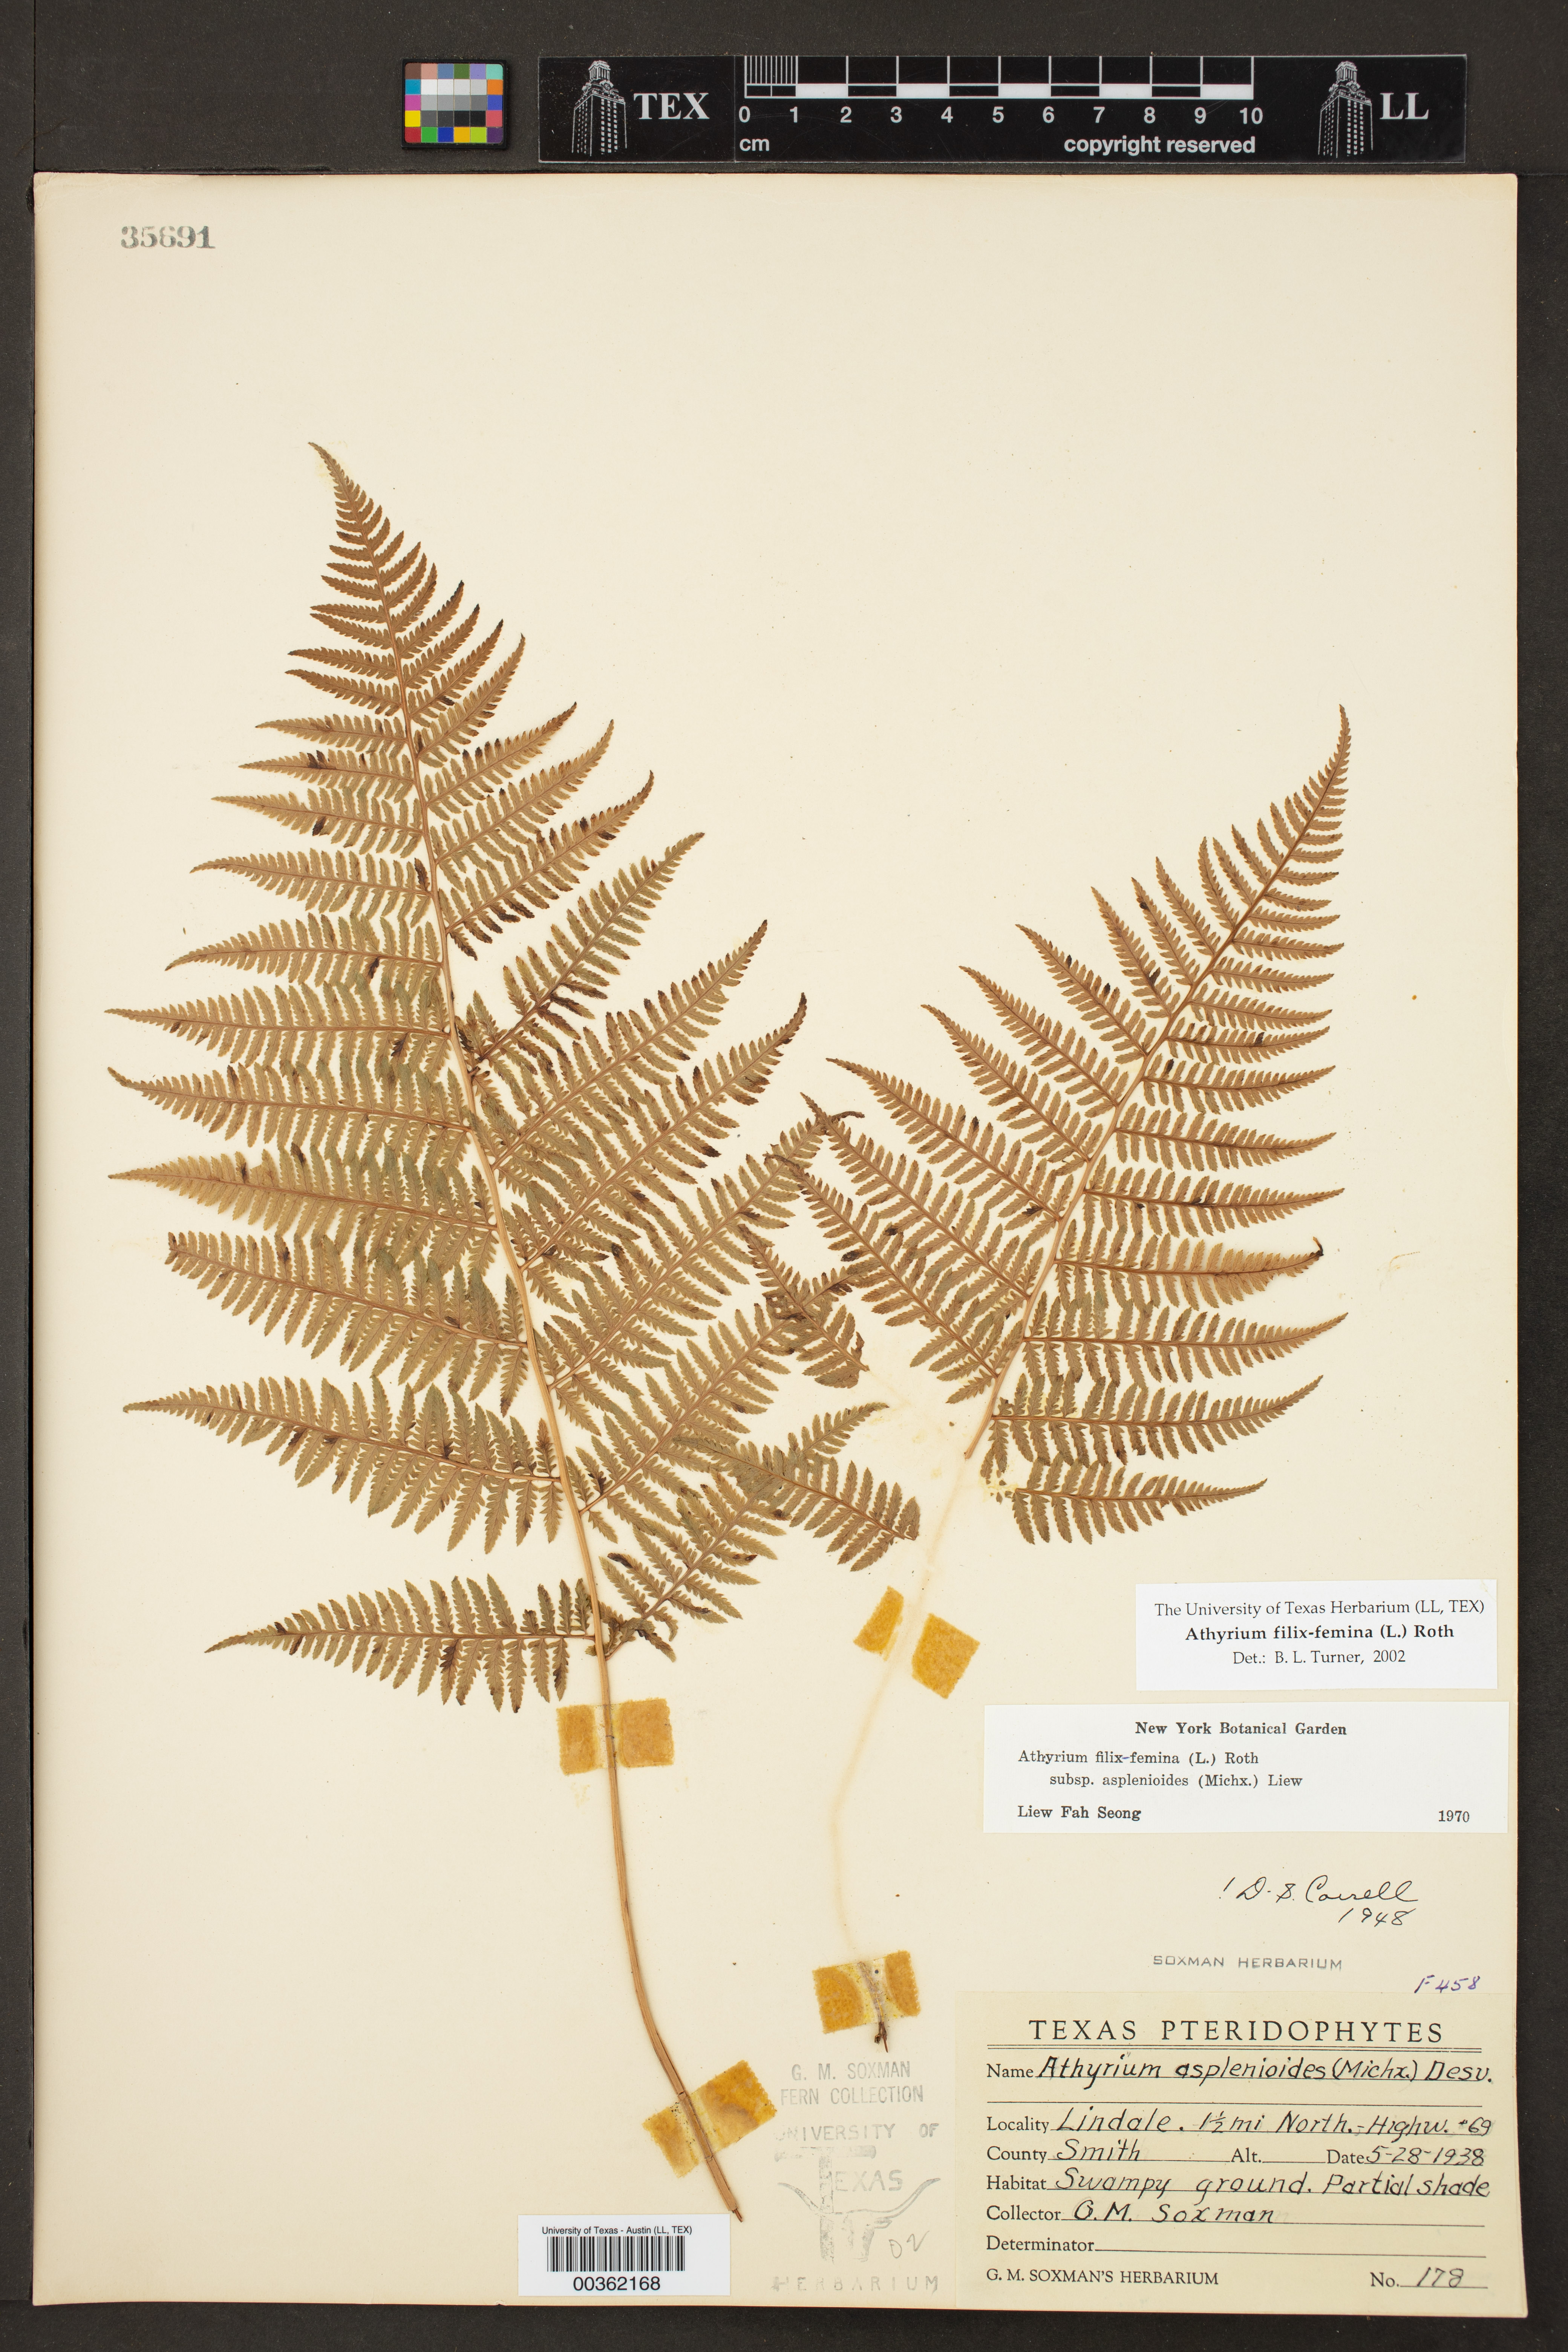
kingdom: Plantae
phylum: Tracheophyta
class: Polypodiopsida
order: Polypodiales
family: Athyriaceae
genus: Athyrium
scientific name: Athyrium filix-femina
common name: Lady fern
